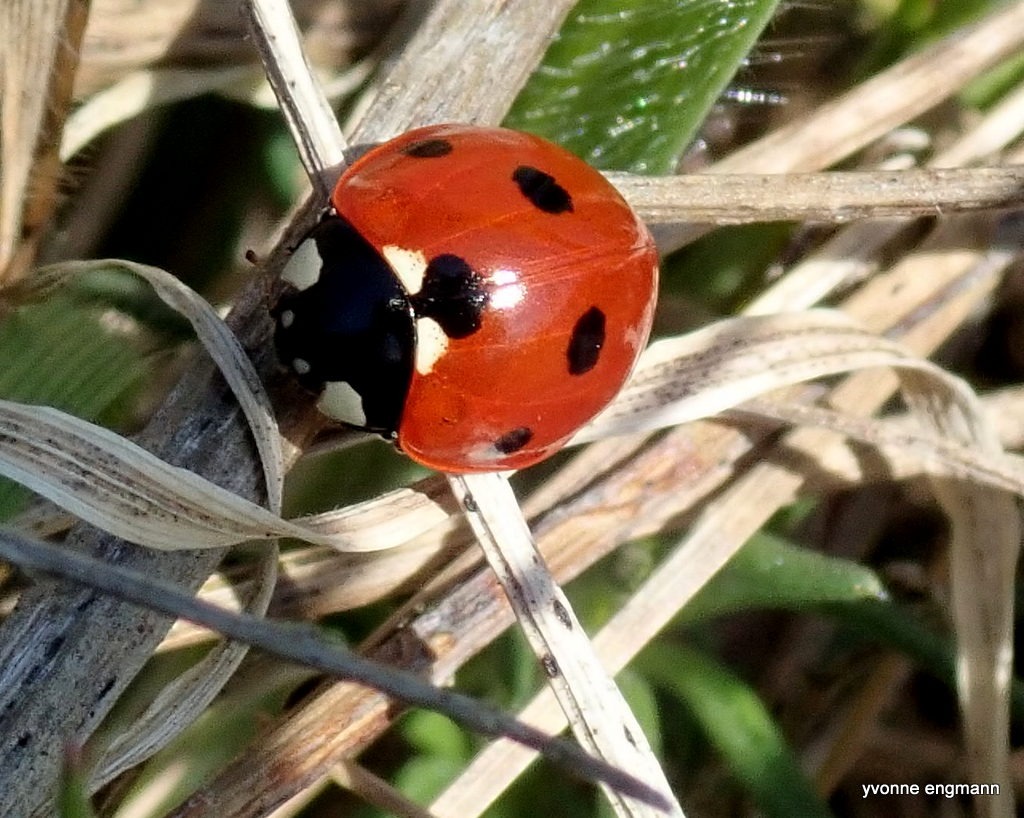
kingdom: Animalia
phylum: Arthropoda
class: Insecta
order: Coleoptera
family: Coccinellidae
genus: Coccinella
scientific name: Coccinella septempunctata
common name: Syvplettet mariehøne
